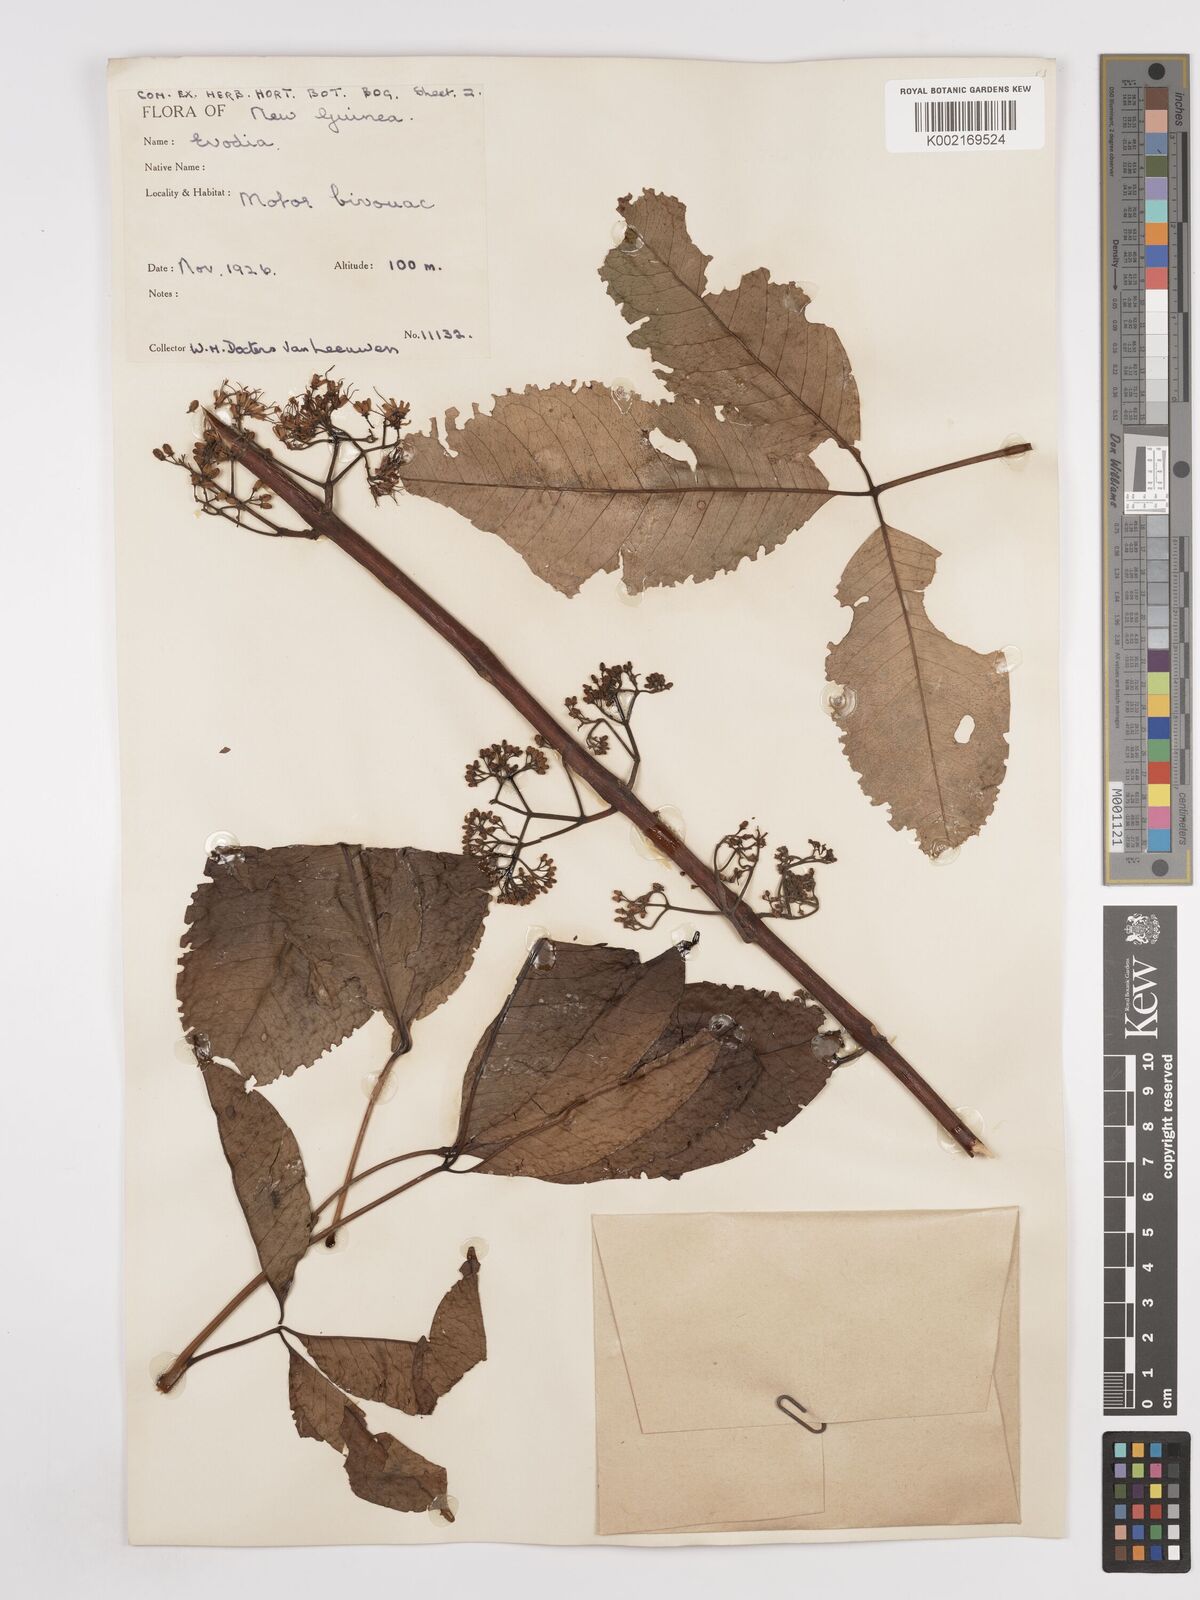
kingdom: Plantae
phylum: Tracheophyta
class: Magnoliopsida
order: Sapindales
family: Rutaceae
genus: Euodia
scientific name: Euodia
